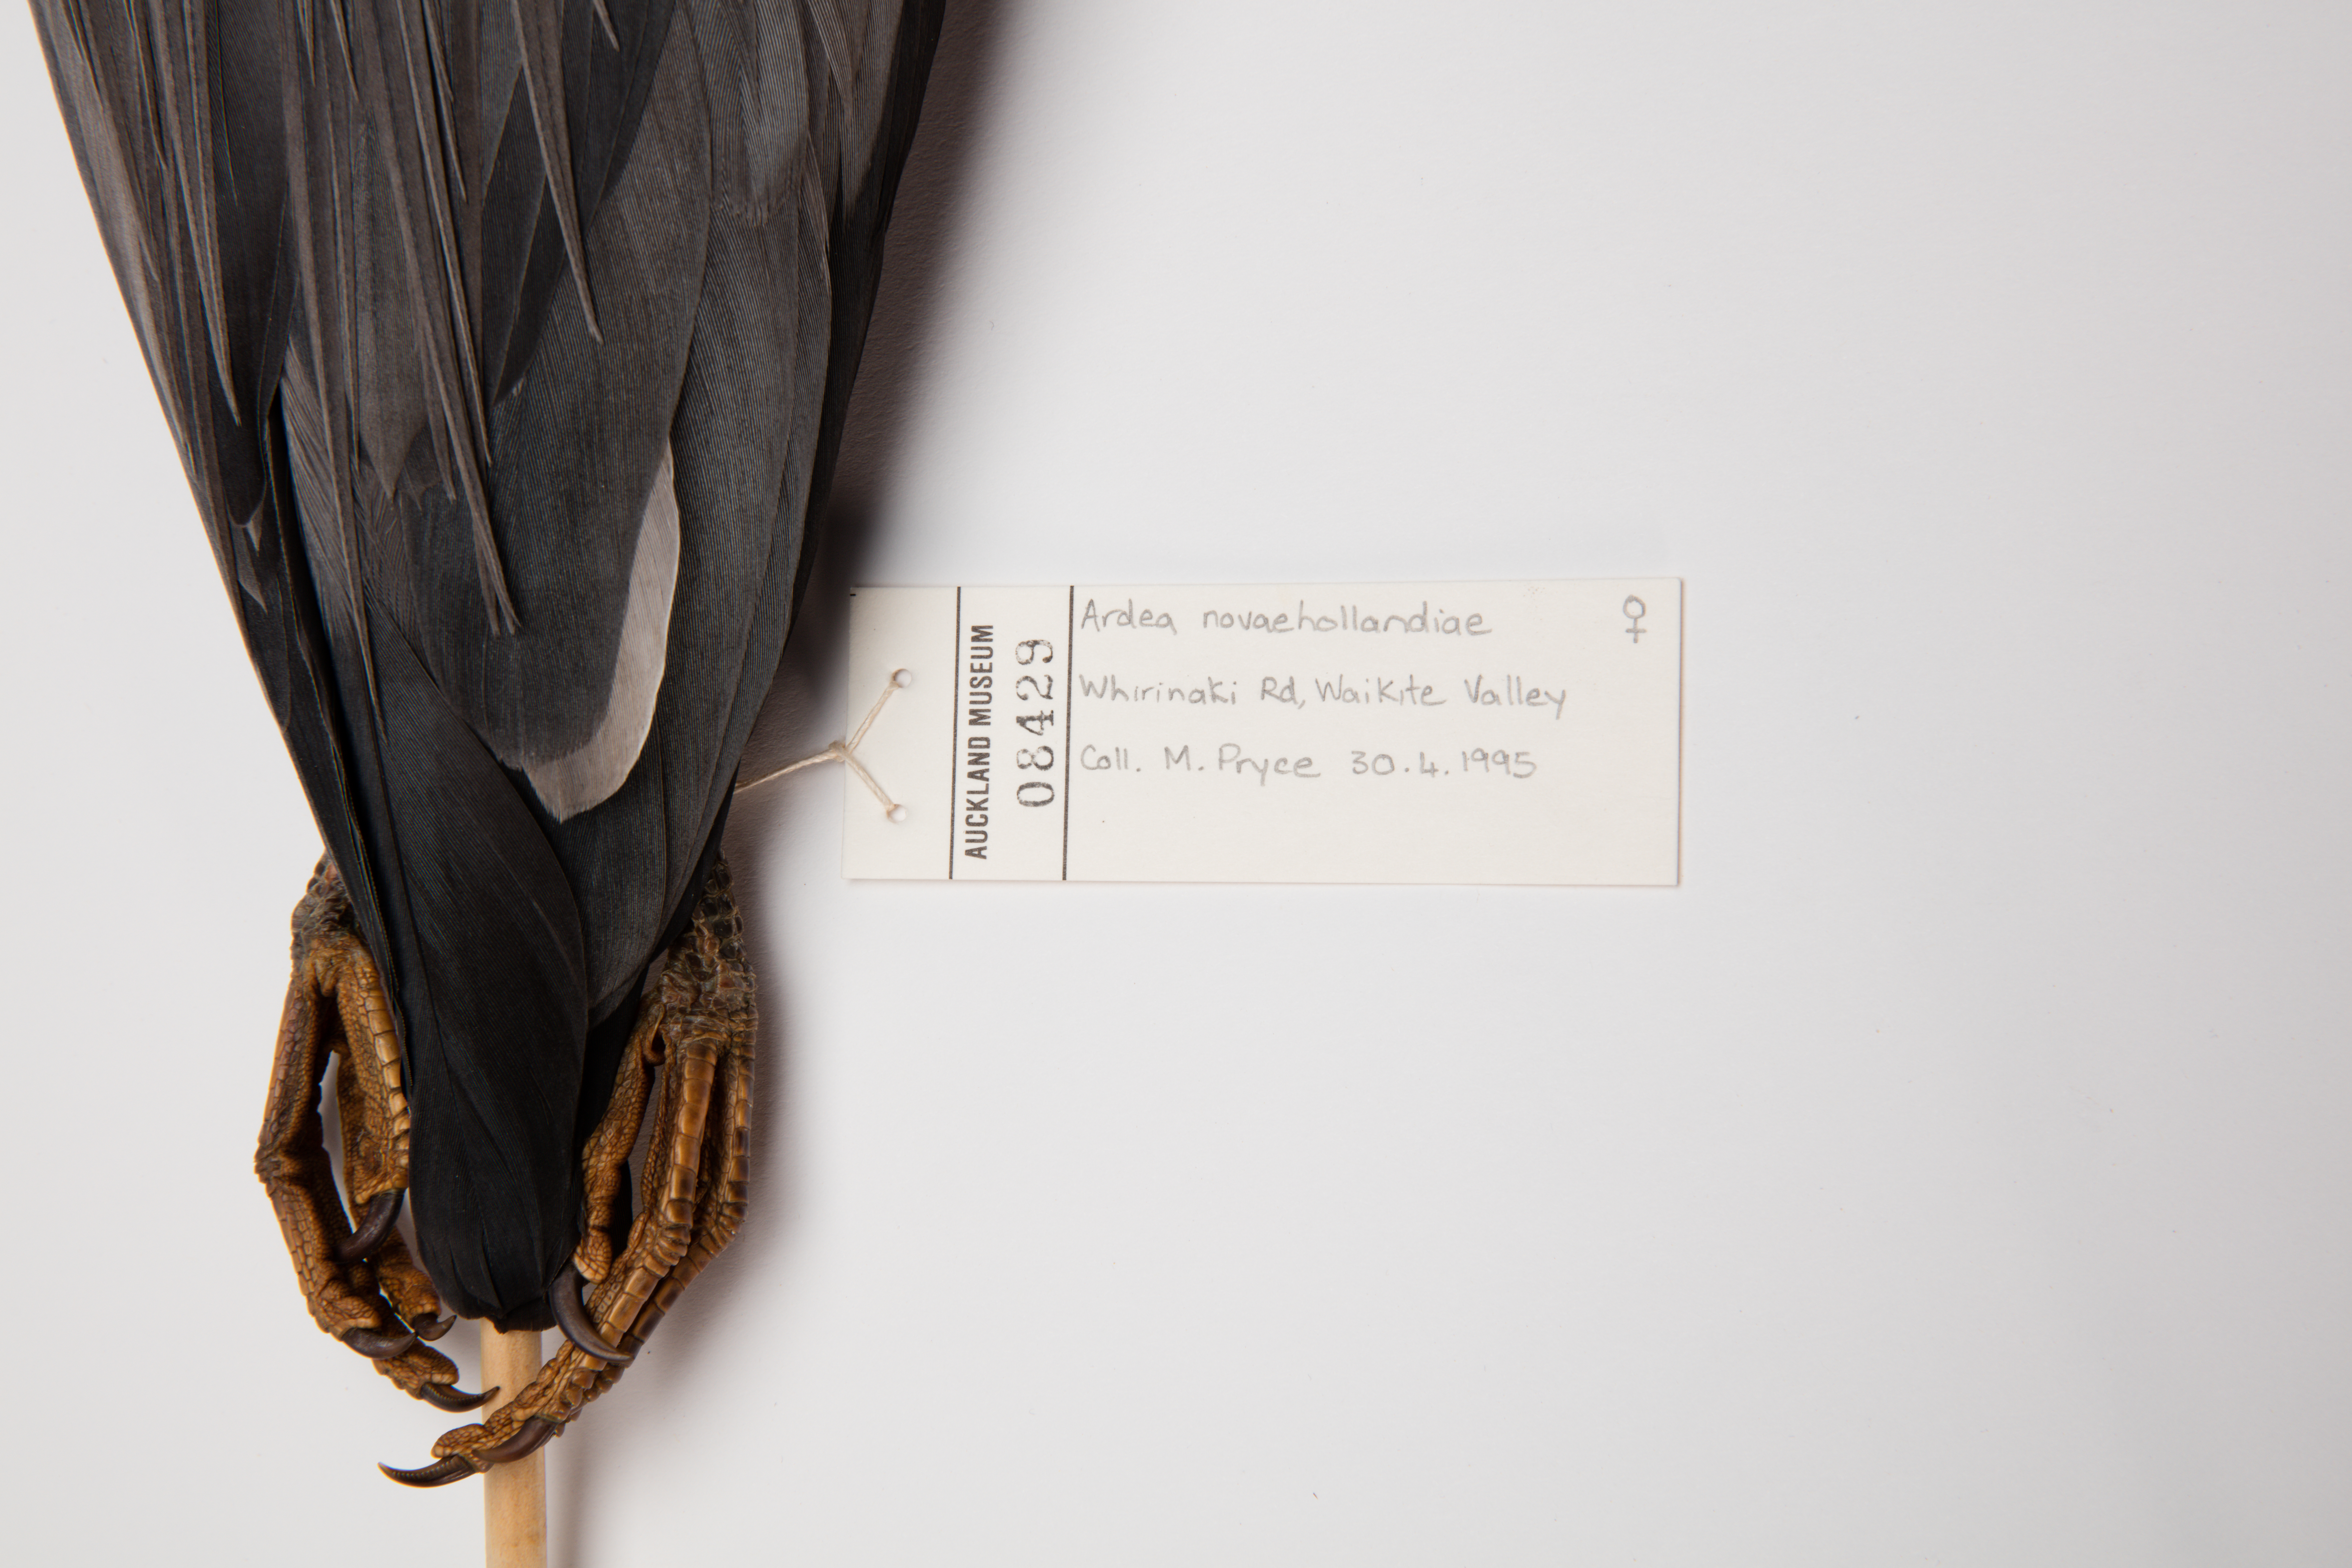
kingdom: Animalia
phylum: Chordata
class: Aves
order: Pelecaniformes
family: Ardeidae
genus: Egretta
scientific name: Egretta novaehollandiae
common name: White-faced heron
